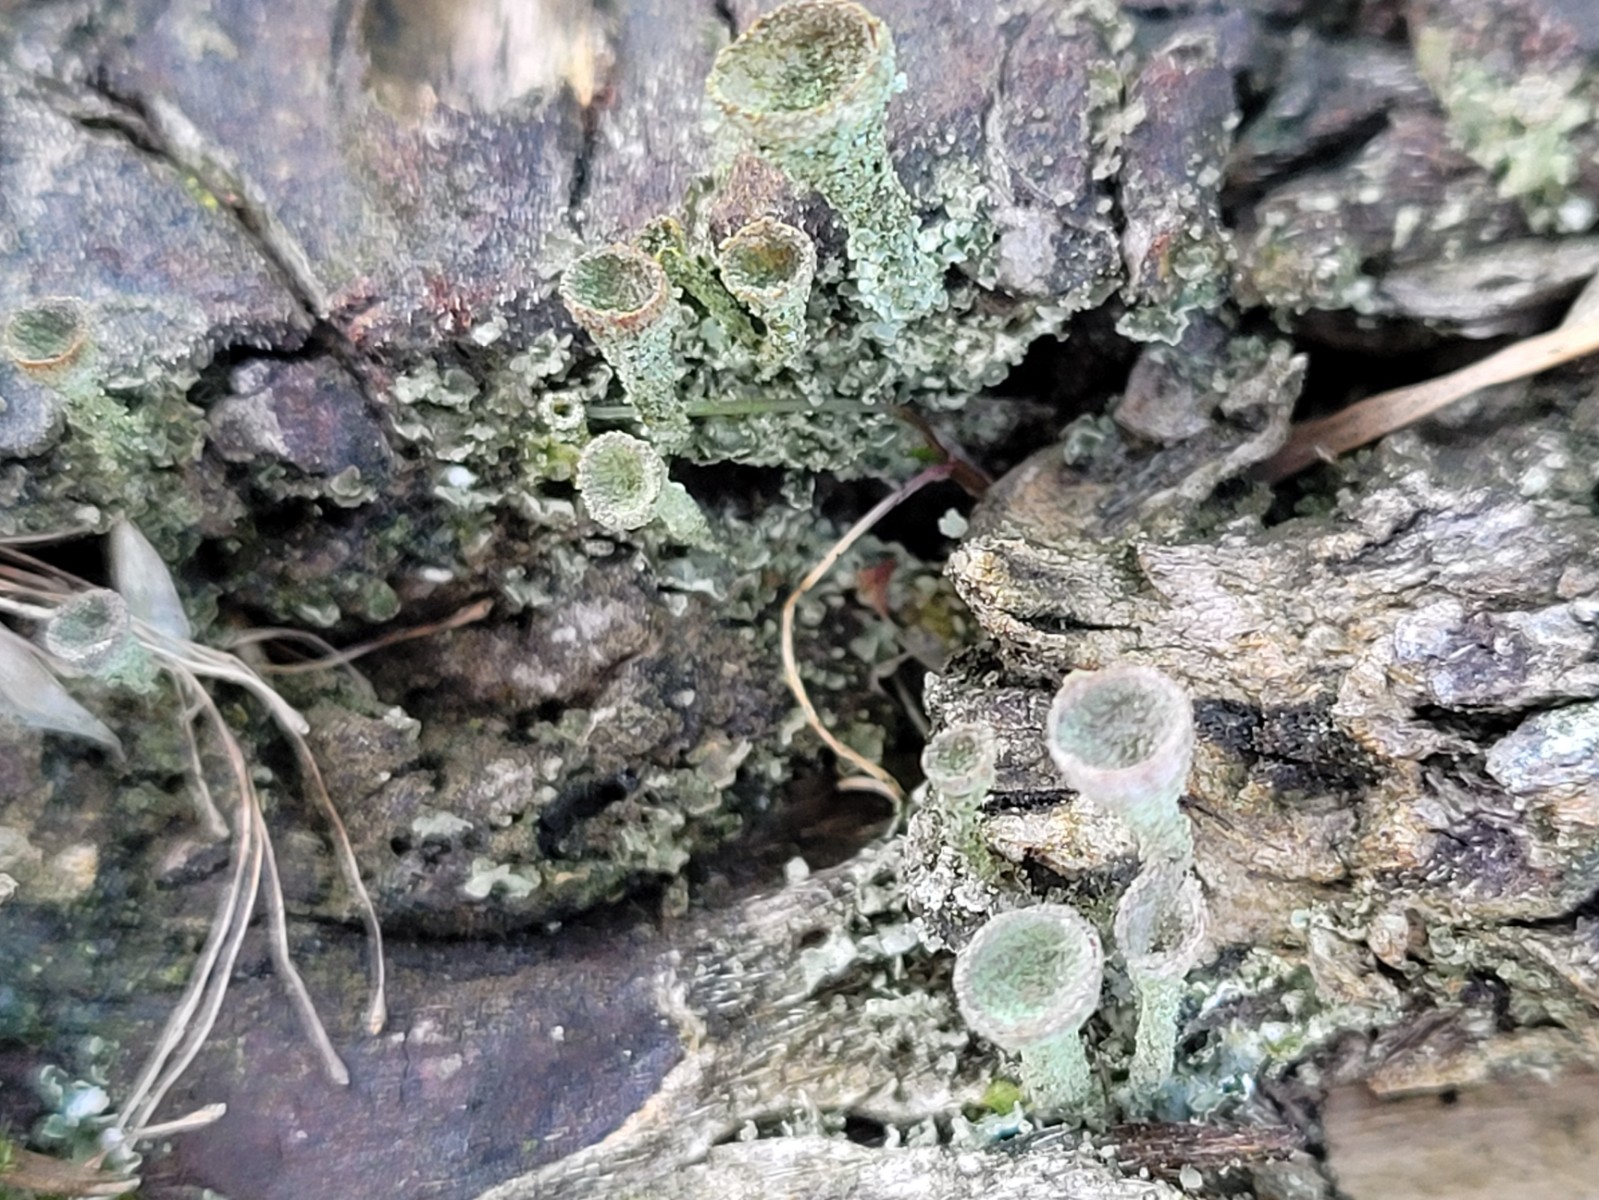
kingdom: Fungi
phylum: Ascomycota
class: Lecanoromycetes
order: Lecanorales
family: Cladoniaceae
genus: Cladonia
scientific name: Cladonia chlorophaea
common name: Mealy pixie cup
